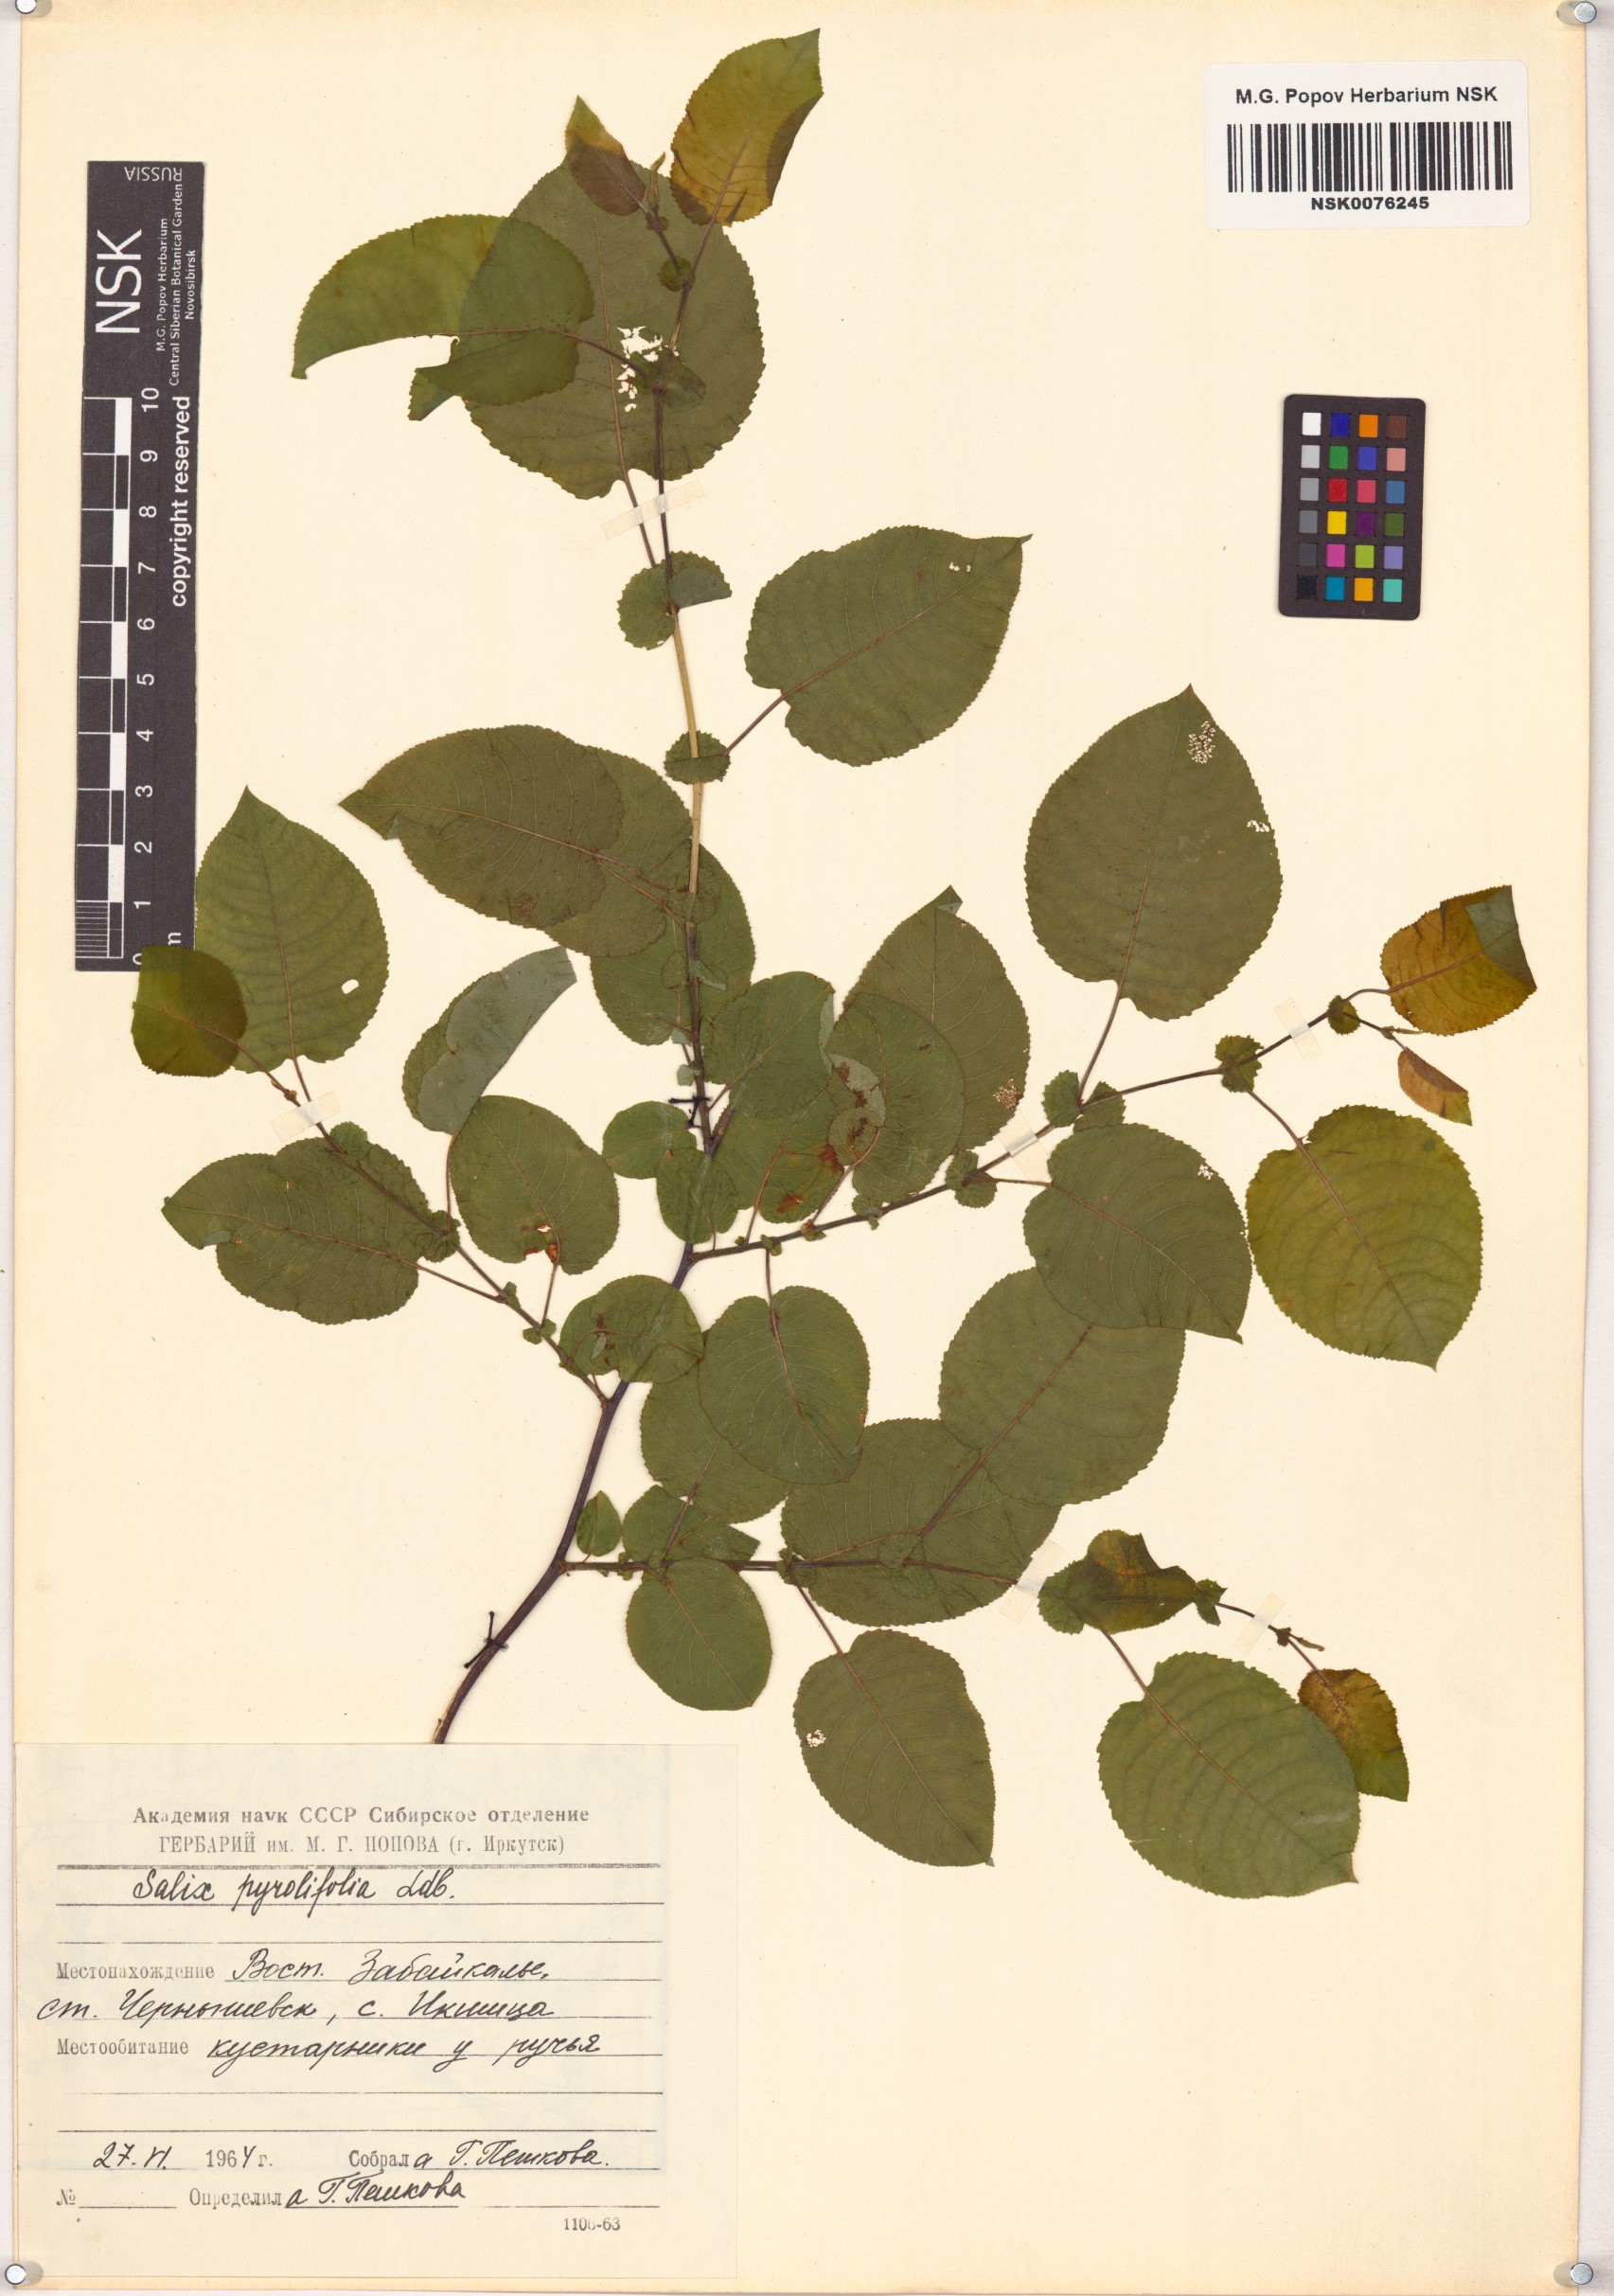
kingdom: Plantae
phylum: Tracheophyta
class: Magnoliopsida
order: Malpighiales
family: Salicaceae
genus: Salix
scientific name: Salix pyrolifolia
